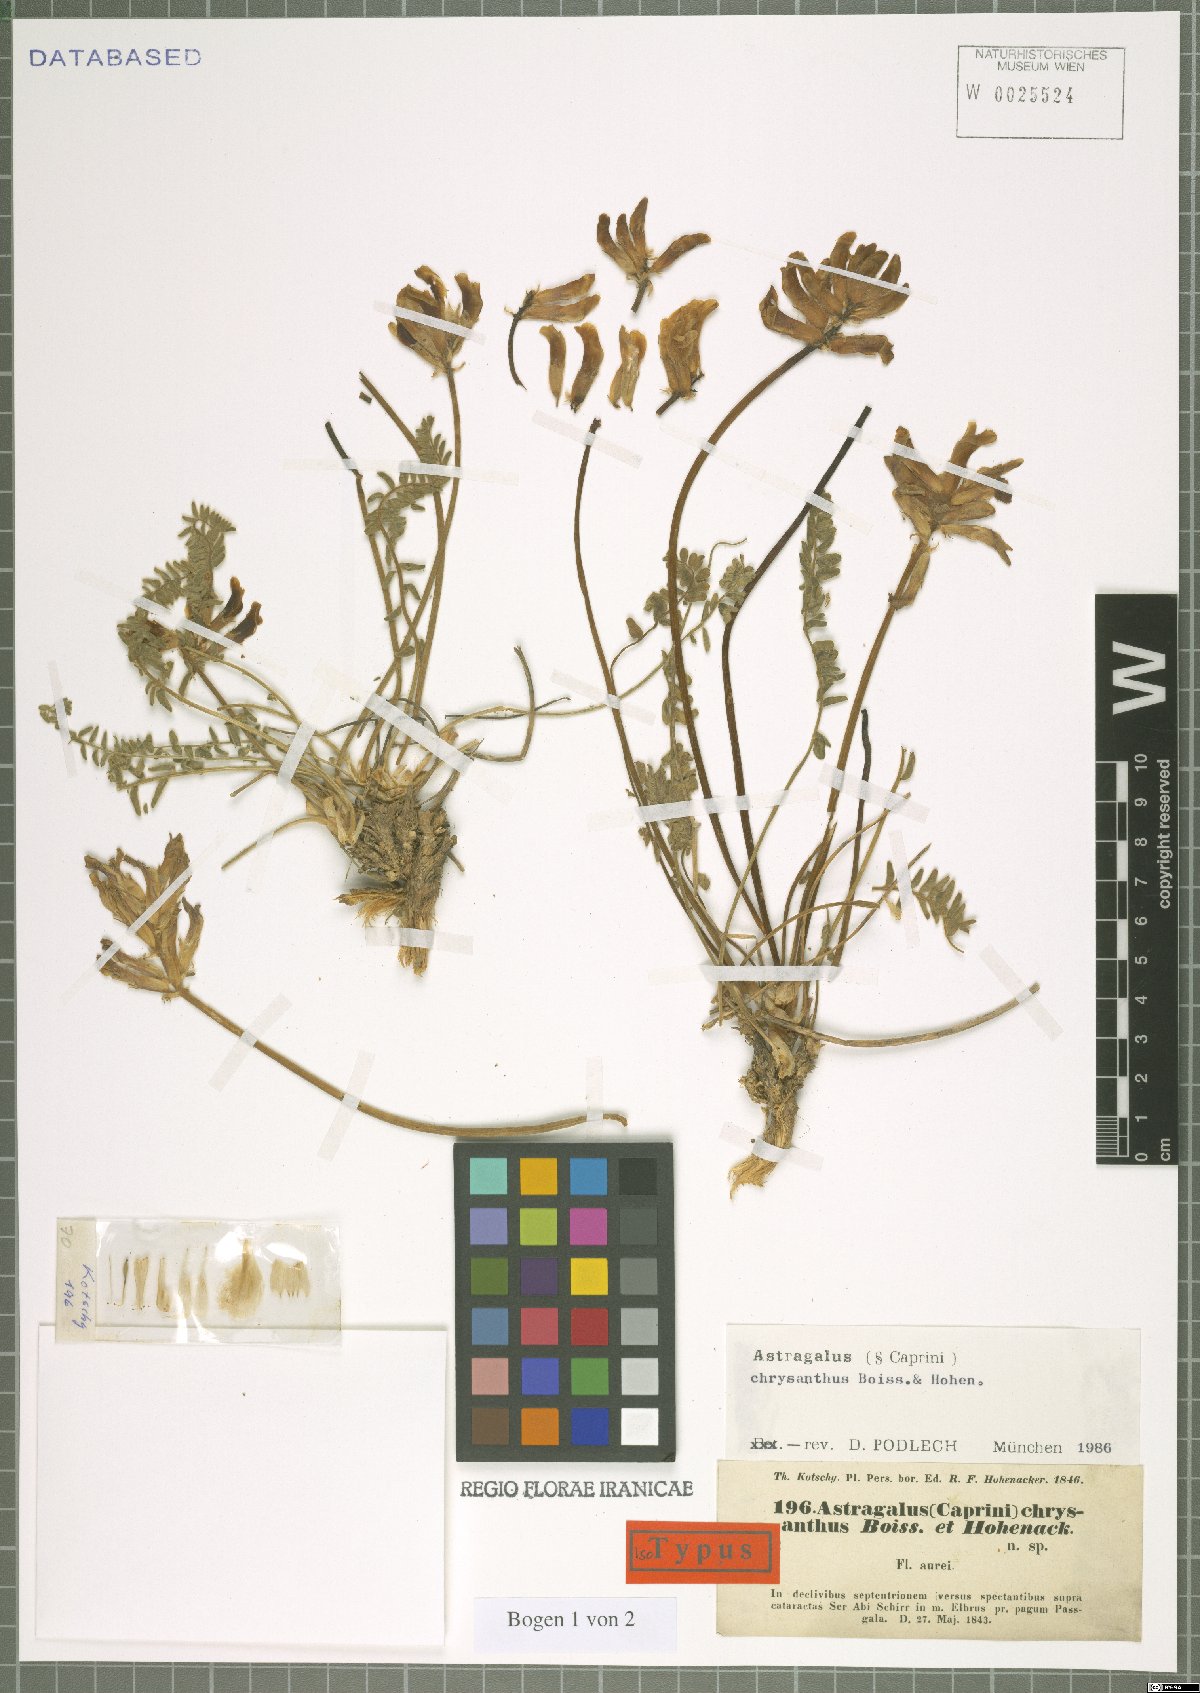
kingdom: Plantae
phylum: Tracheophyta
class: Magnoliopsida
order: Fabales
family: Fabaceae
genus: Astragalus
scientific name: Astragalus chrysanthus
